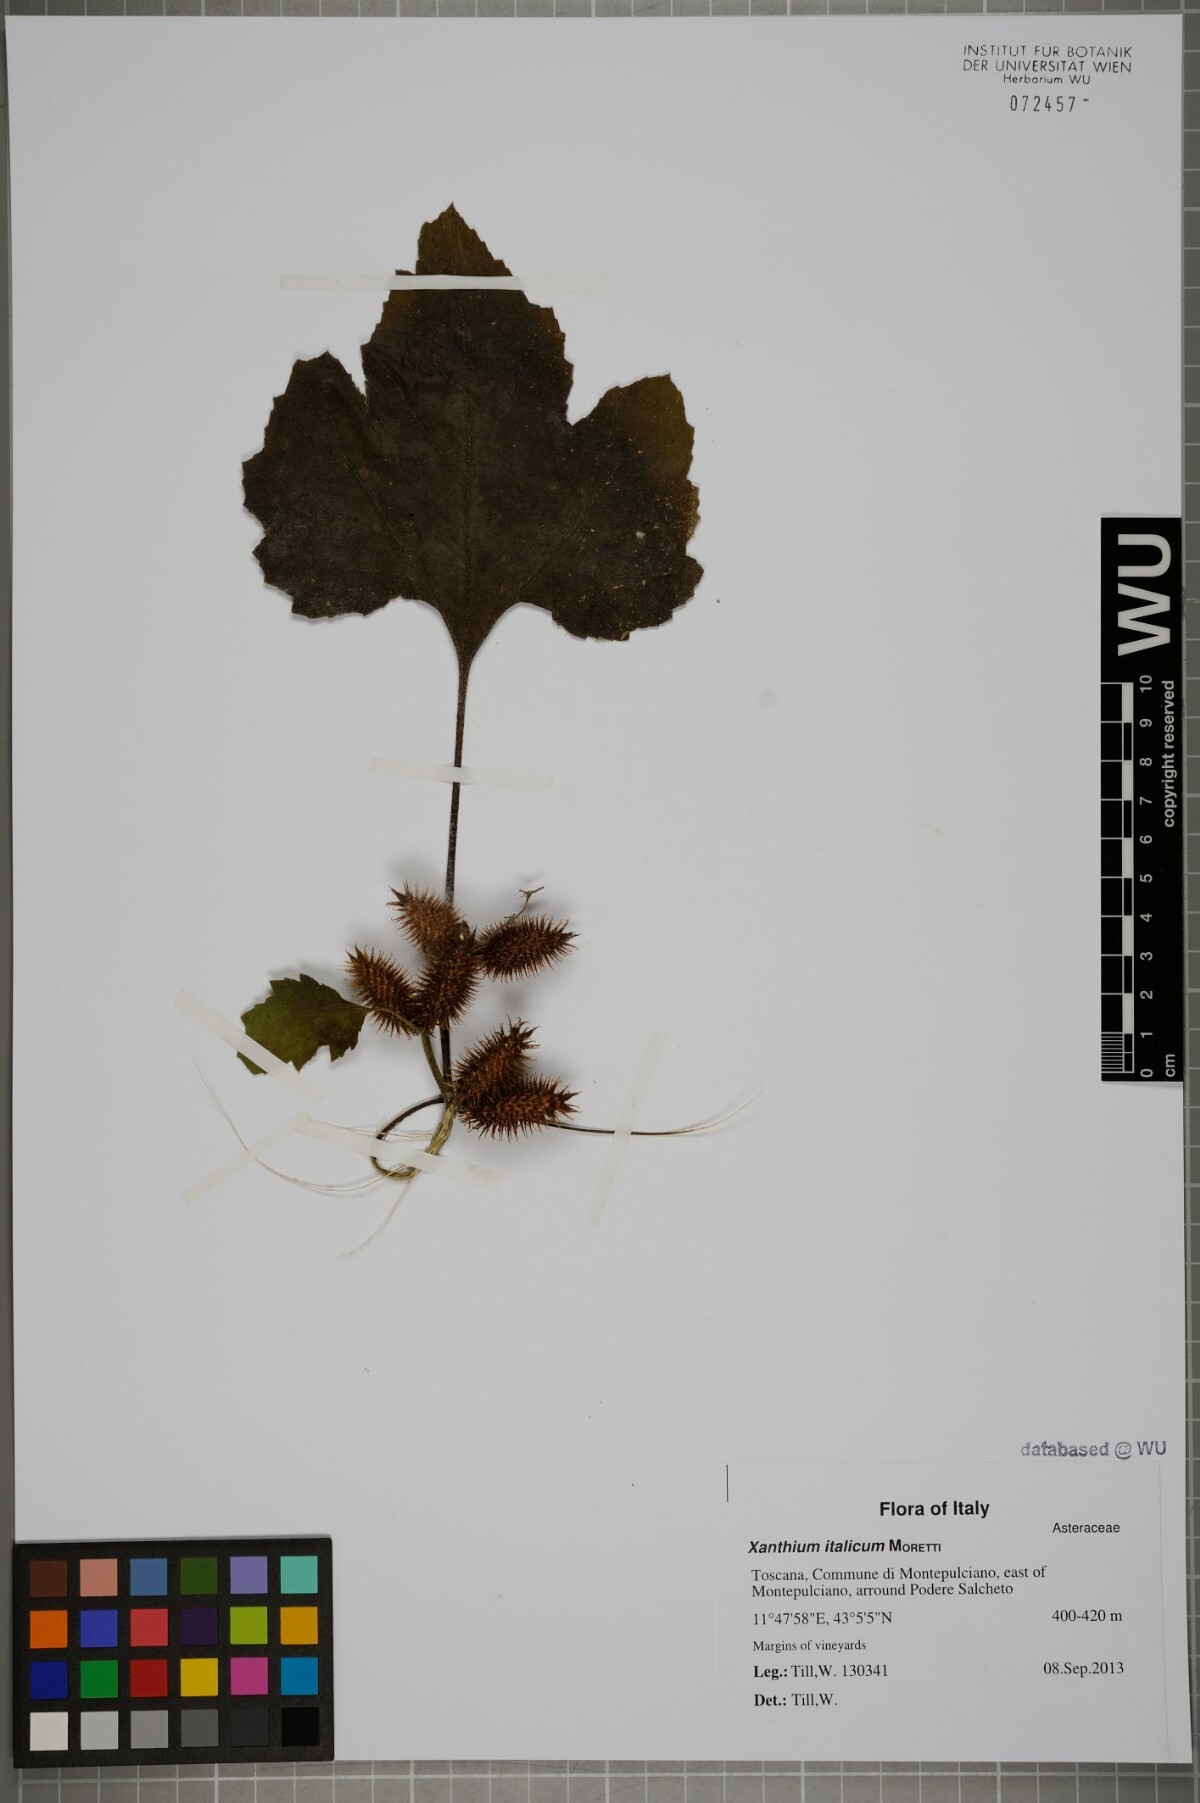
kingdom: Plantae
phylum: Tracheophyta
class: Magnoliopsida
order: Asterales
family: Asteraceae
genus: Xanthium
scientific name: Xanthium orientale
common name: Californian burr
